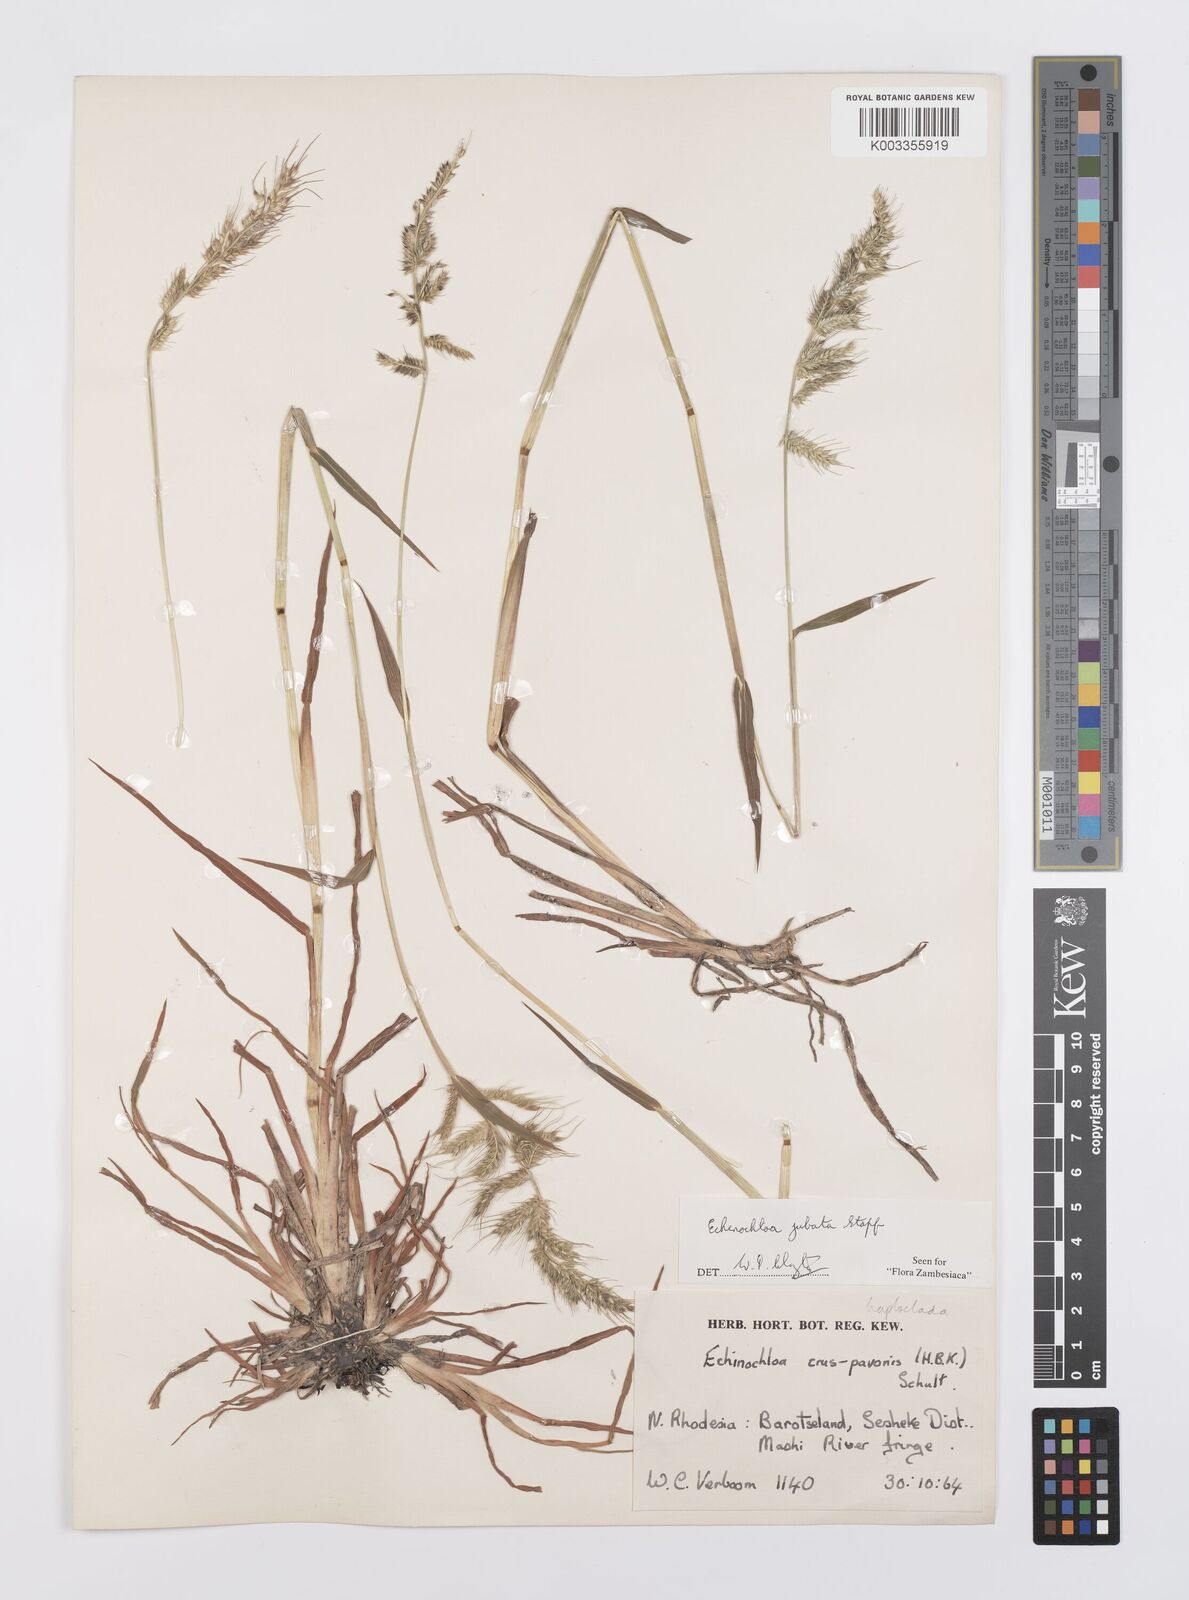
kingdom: Plantae
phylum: Tracheophyta
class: Liliopsida
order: Poales
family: Poaceae
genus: Echinochloa
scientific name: Echinochloa jubata
